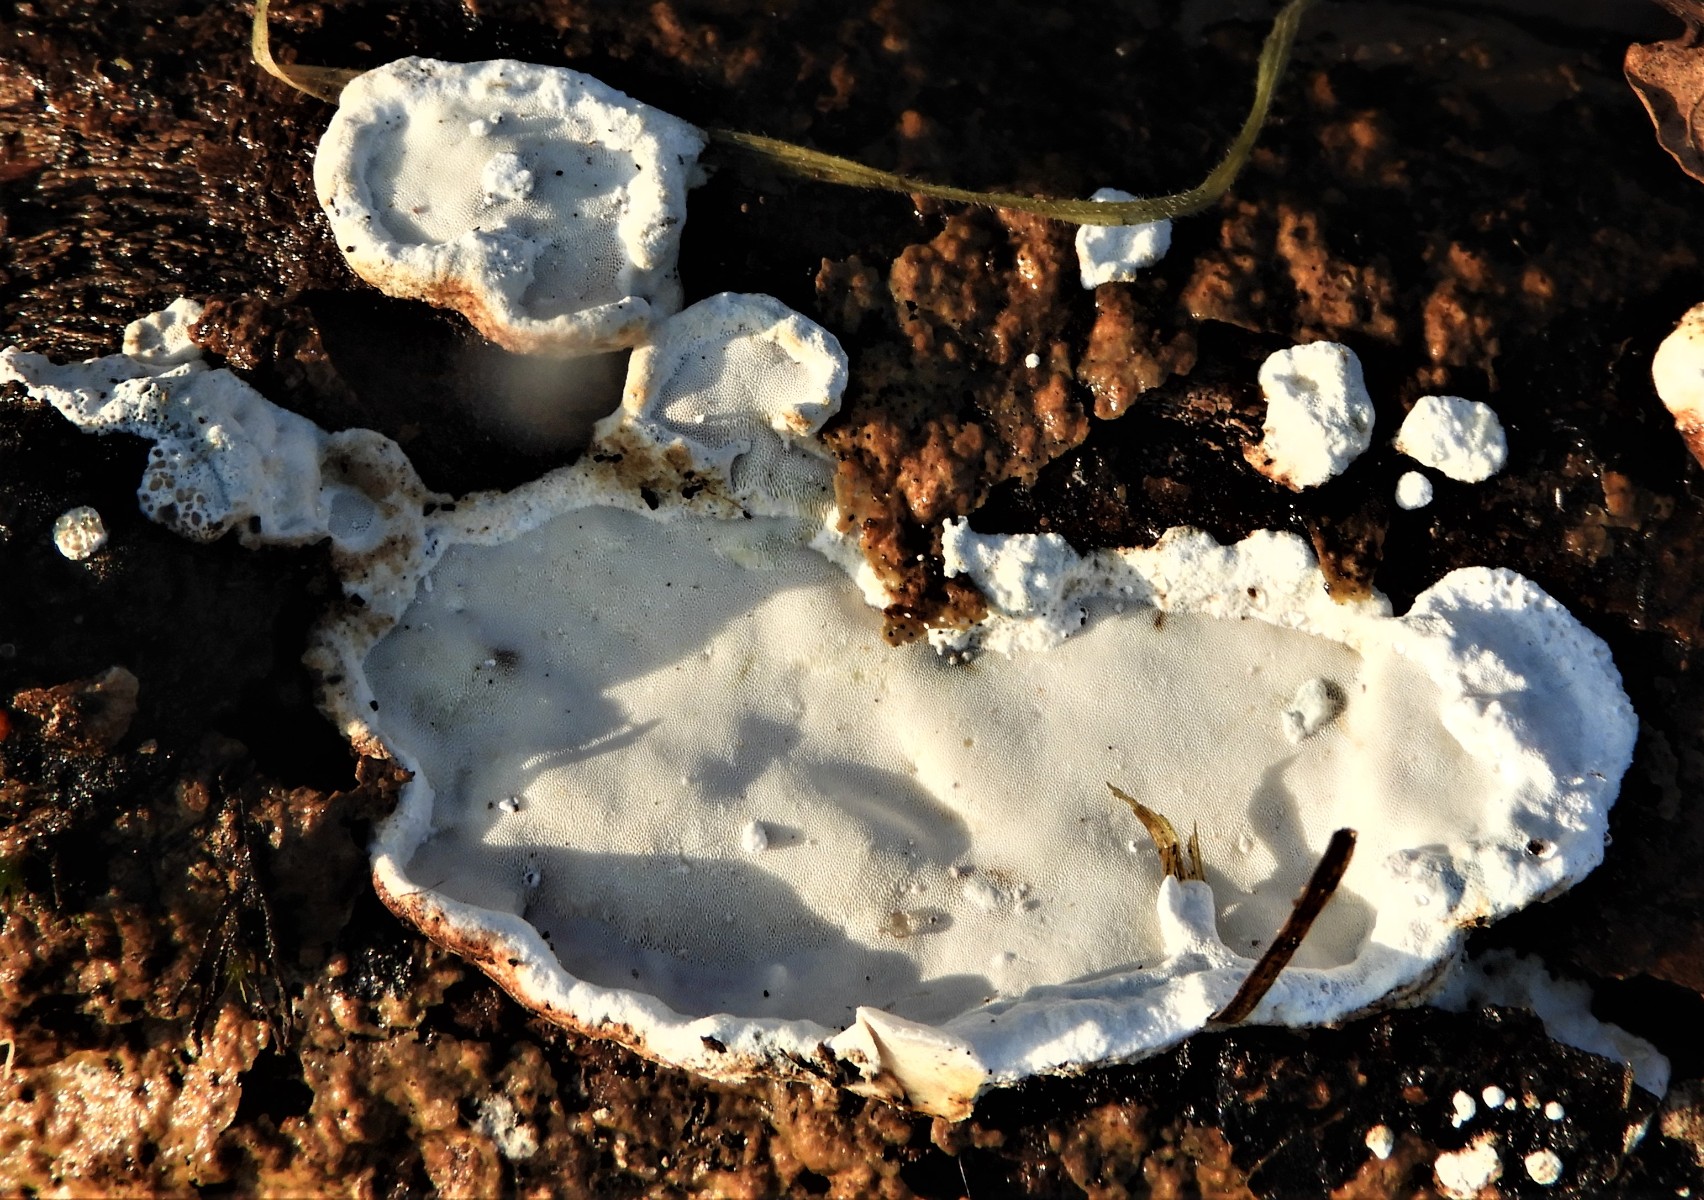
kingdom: Fungi
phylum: Basidiomycota
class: Agaricomycetes
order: Polyporales
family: Incrustoporiaceae
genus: Skeletocutis
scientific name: Skeletocutis nemoralis
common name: stor krystalporesvamp
